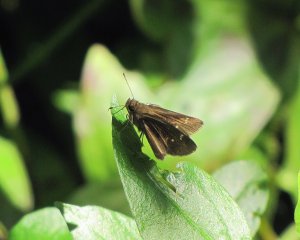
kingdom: Animalia
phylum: Arthropoda
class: Insecta
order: Lepidoptera
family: Hesperiidae
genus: Lerema
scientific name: Lerema accius
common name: Clouded Skipper
